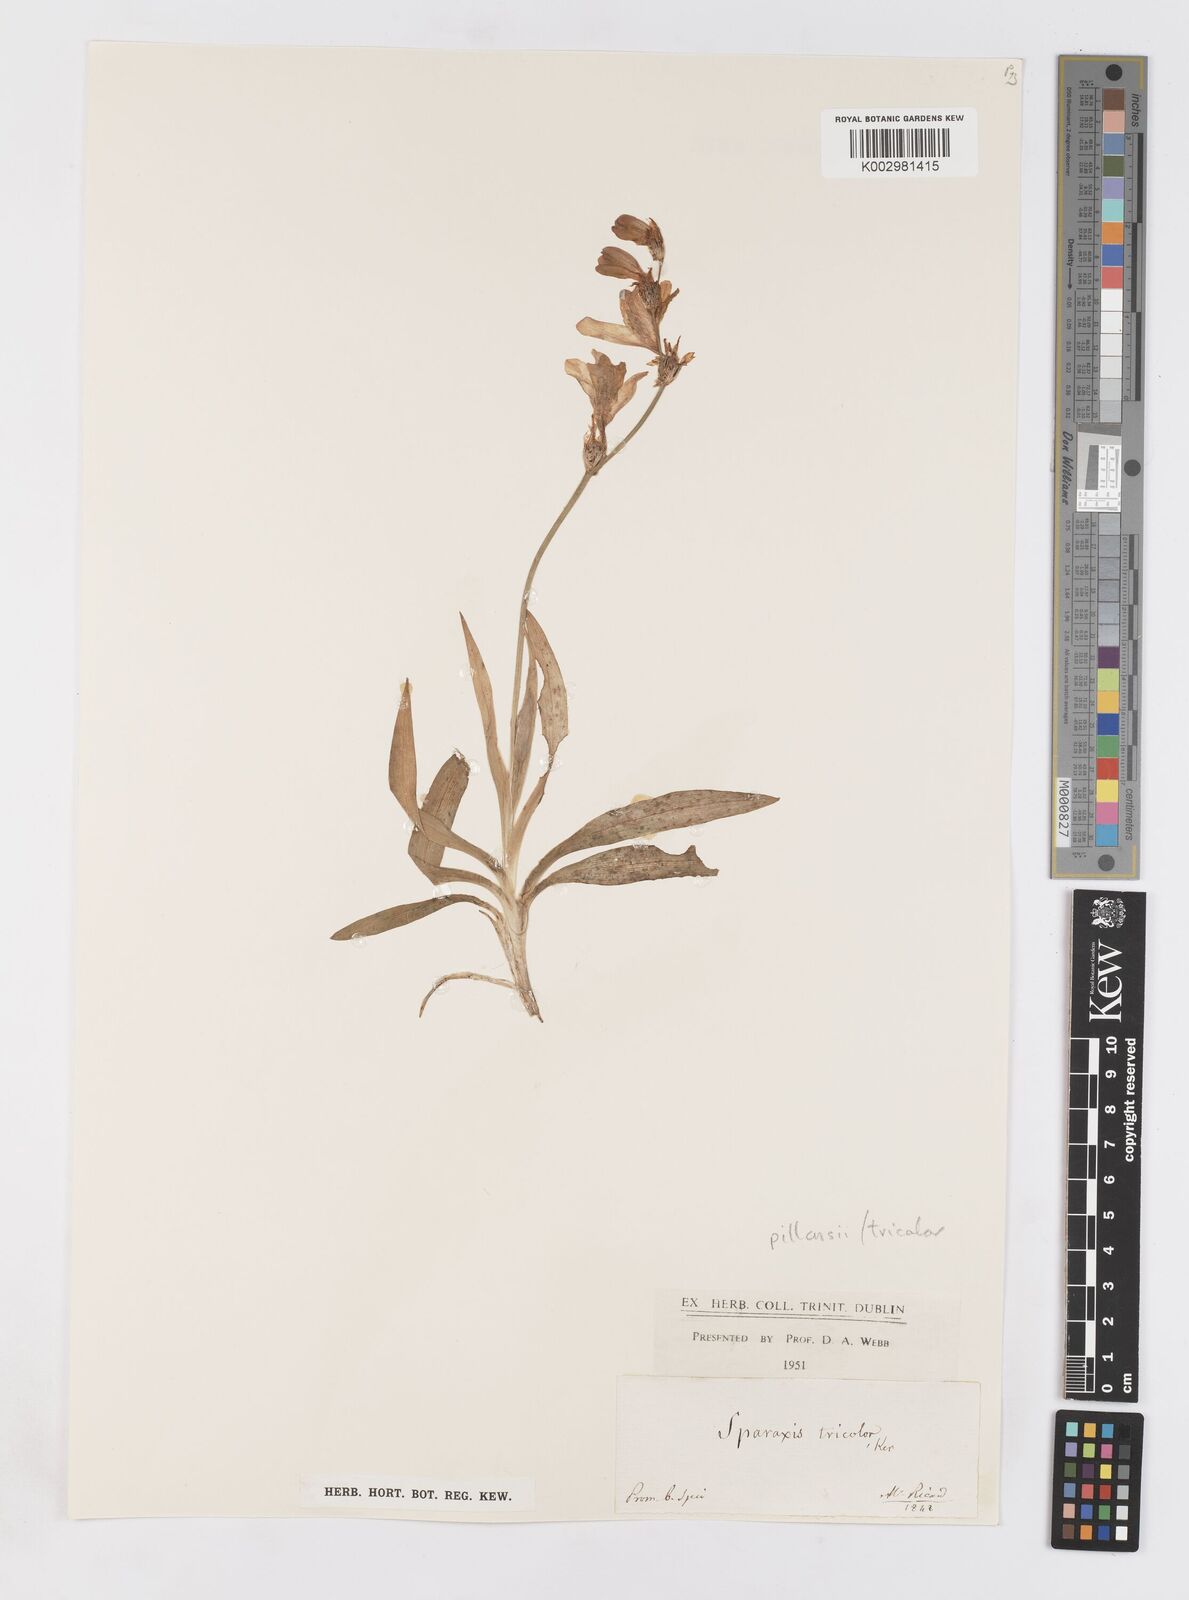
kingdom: Plantae
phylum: Tracheophyta
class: Liliopsida
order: Asparagales
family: Iridaceae
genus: Sparaxis
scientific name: Sparaxis tricolor
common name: Wandflower
